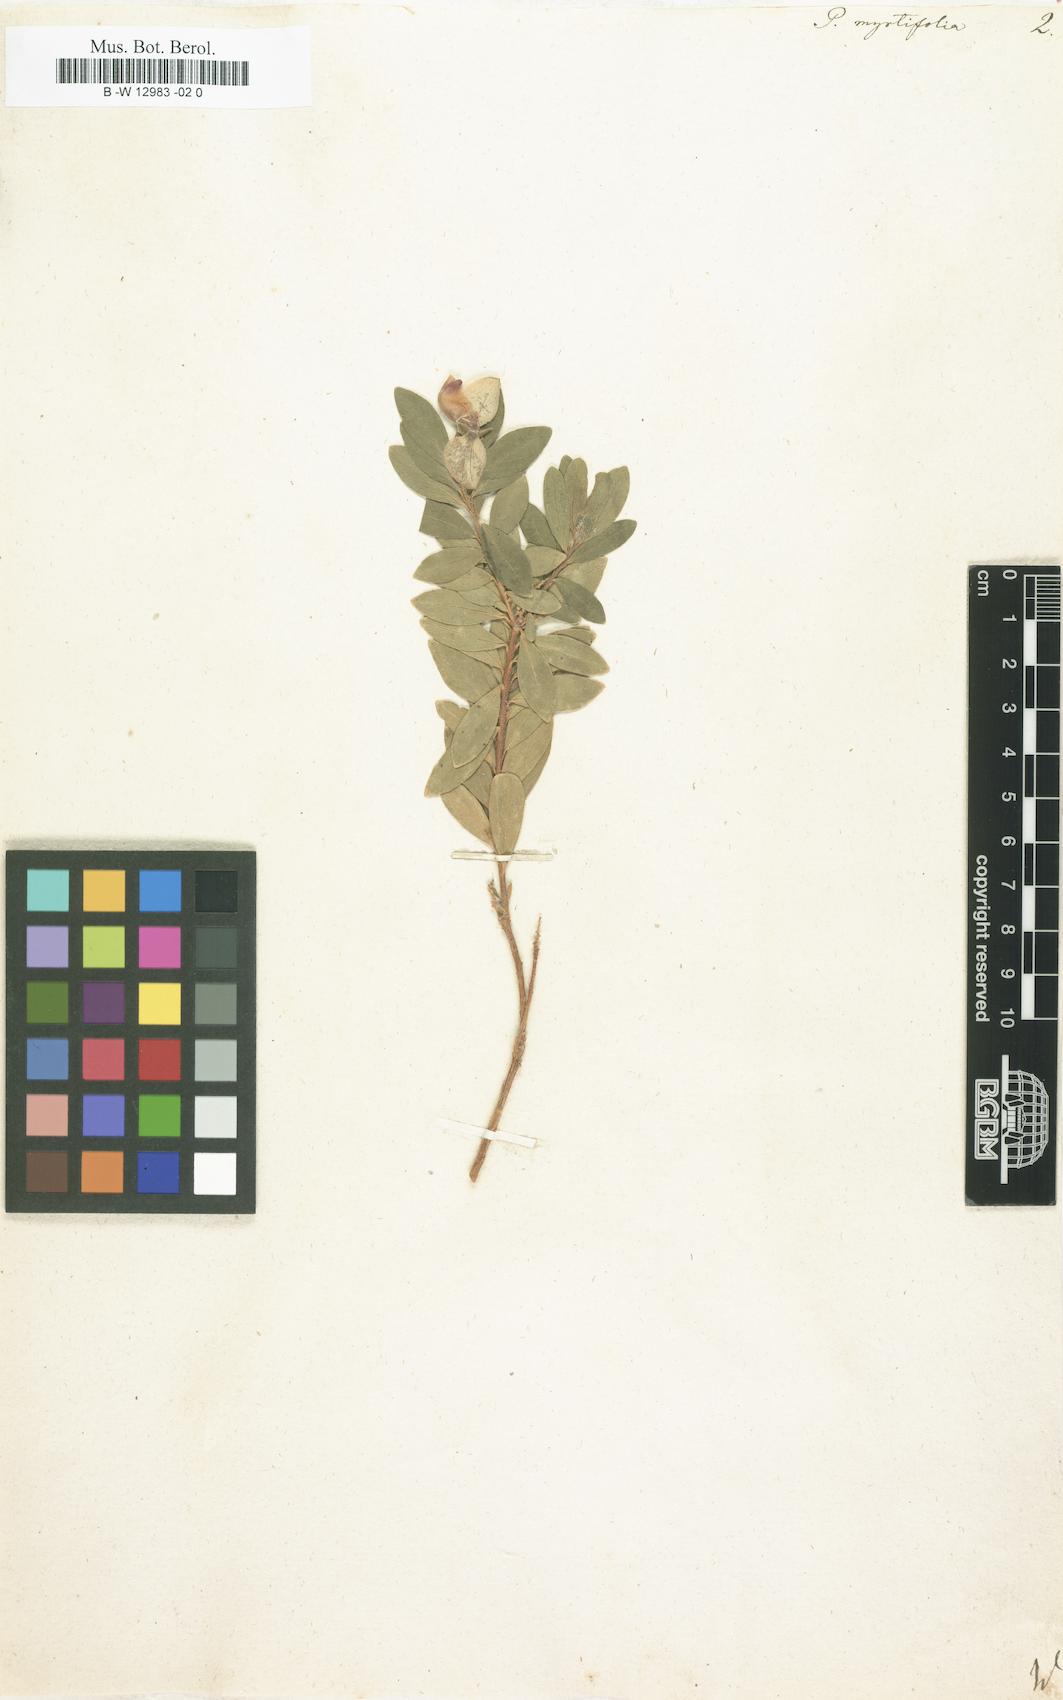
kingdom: Plantae
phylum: Tracheophyta
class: Magnoliopsida
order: Fabales
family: Polygalaceae
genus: Polygala
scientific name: Polygala myrtifolia
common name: Myrtle-leaf milkwort
